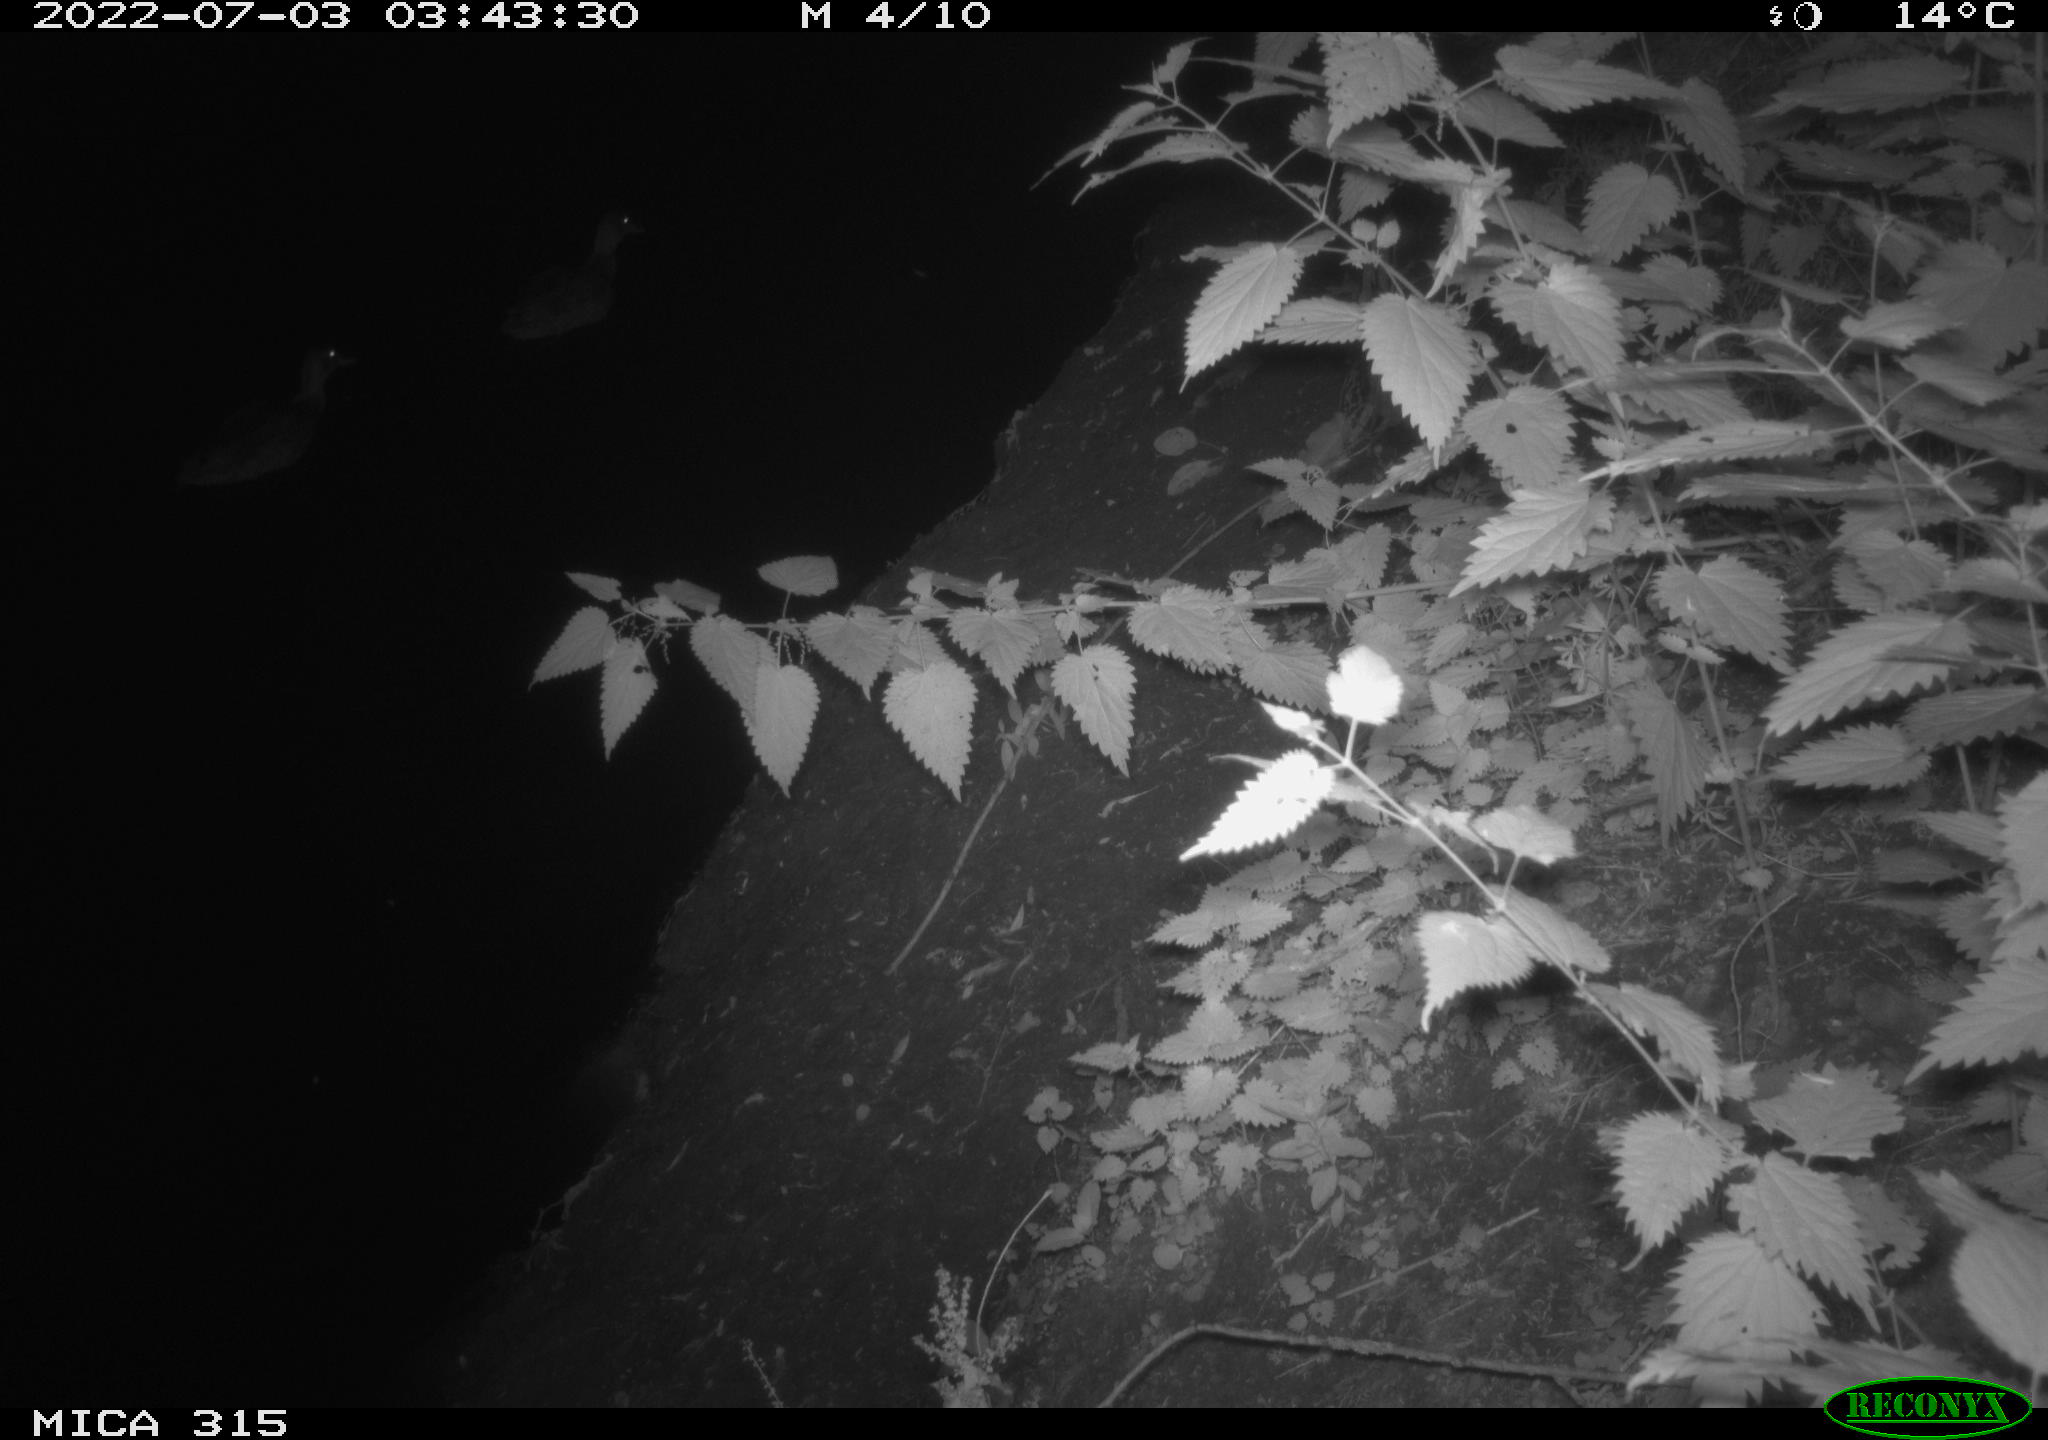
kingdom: Animalia
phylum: Chordata
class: Aves
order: Anseriformes
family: Anatidae
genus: Anas
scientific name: Anas platyrhynchos
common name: Mallard
